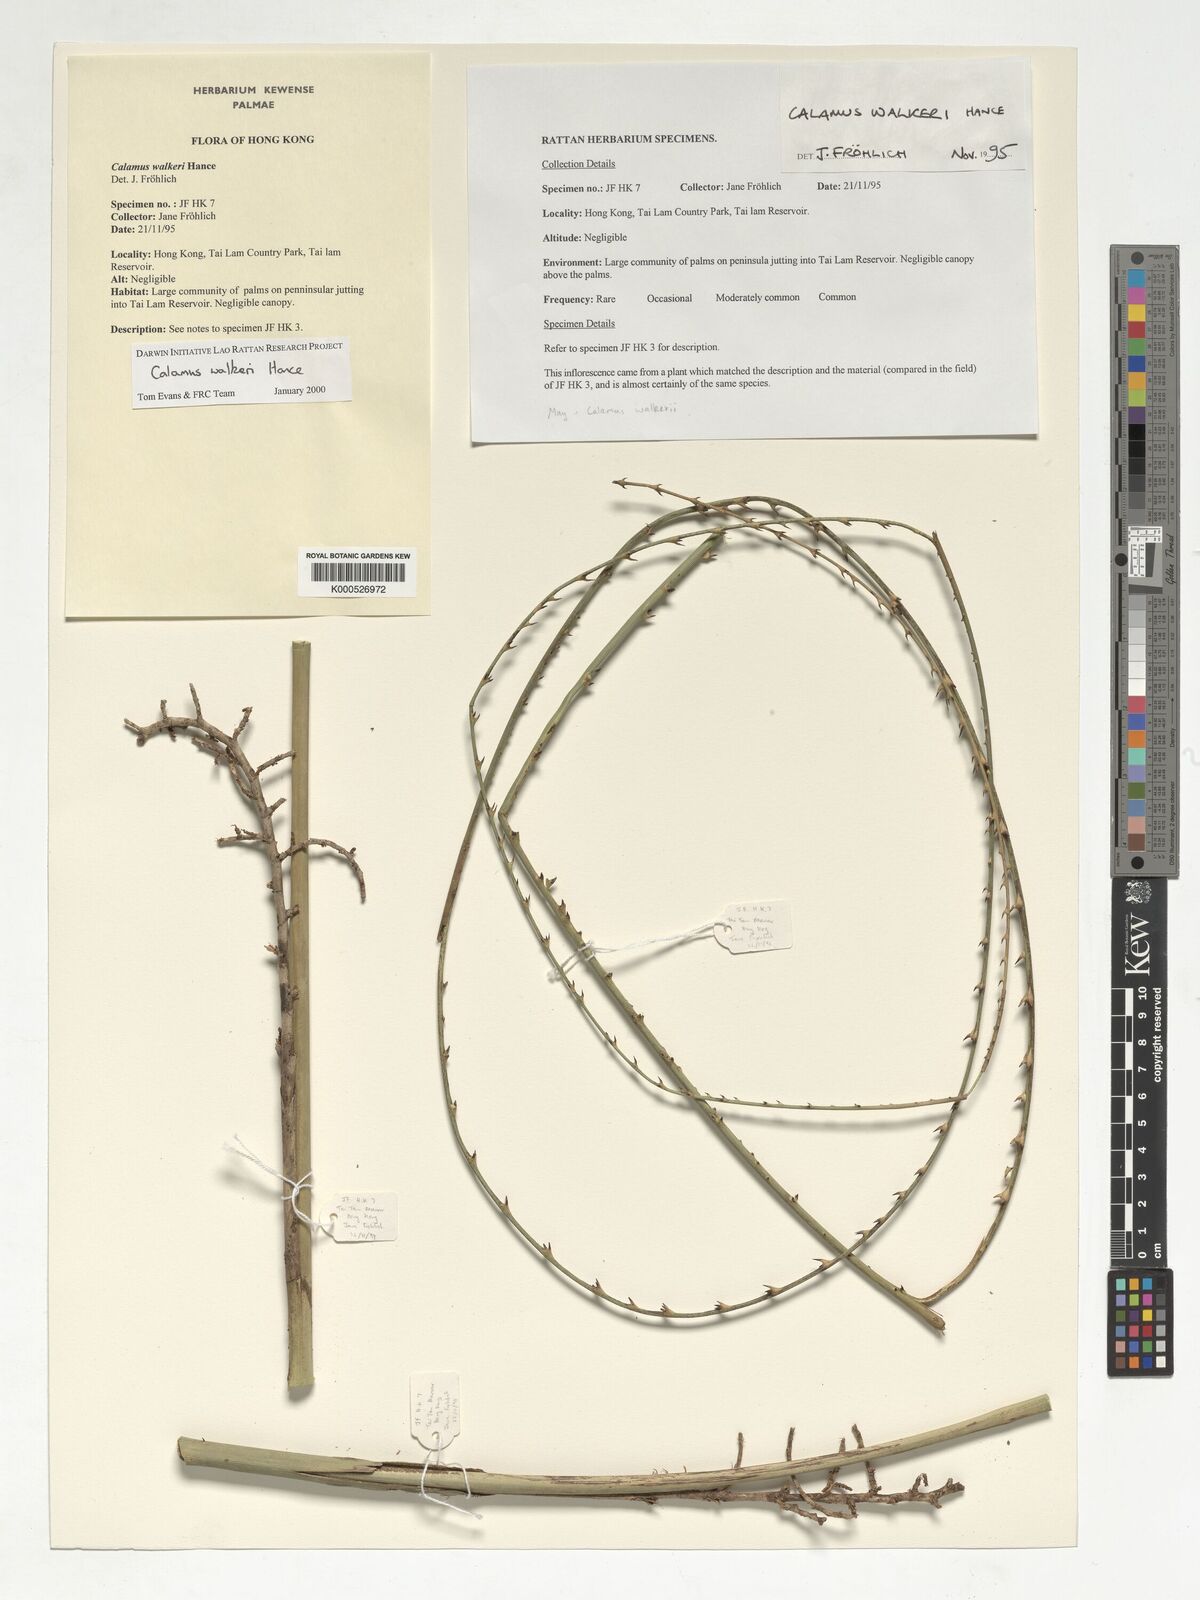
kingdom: Plantae
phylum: Tracheophyta
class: Liliopsida
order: Arecales
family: Arecaceae
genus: Calamus
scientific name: Calamus walkeri
